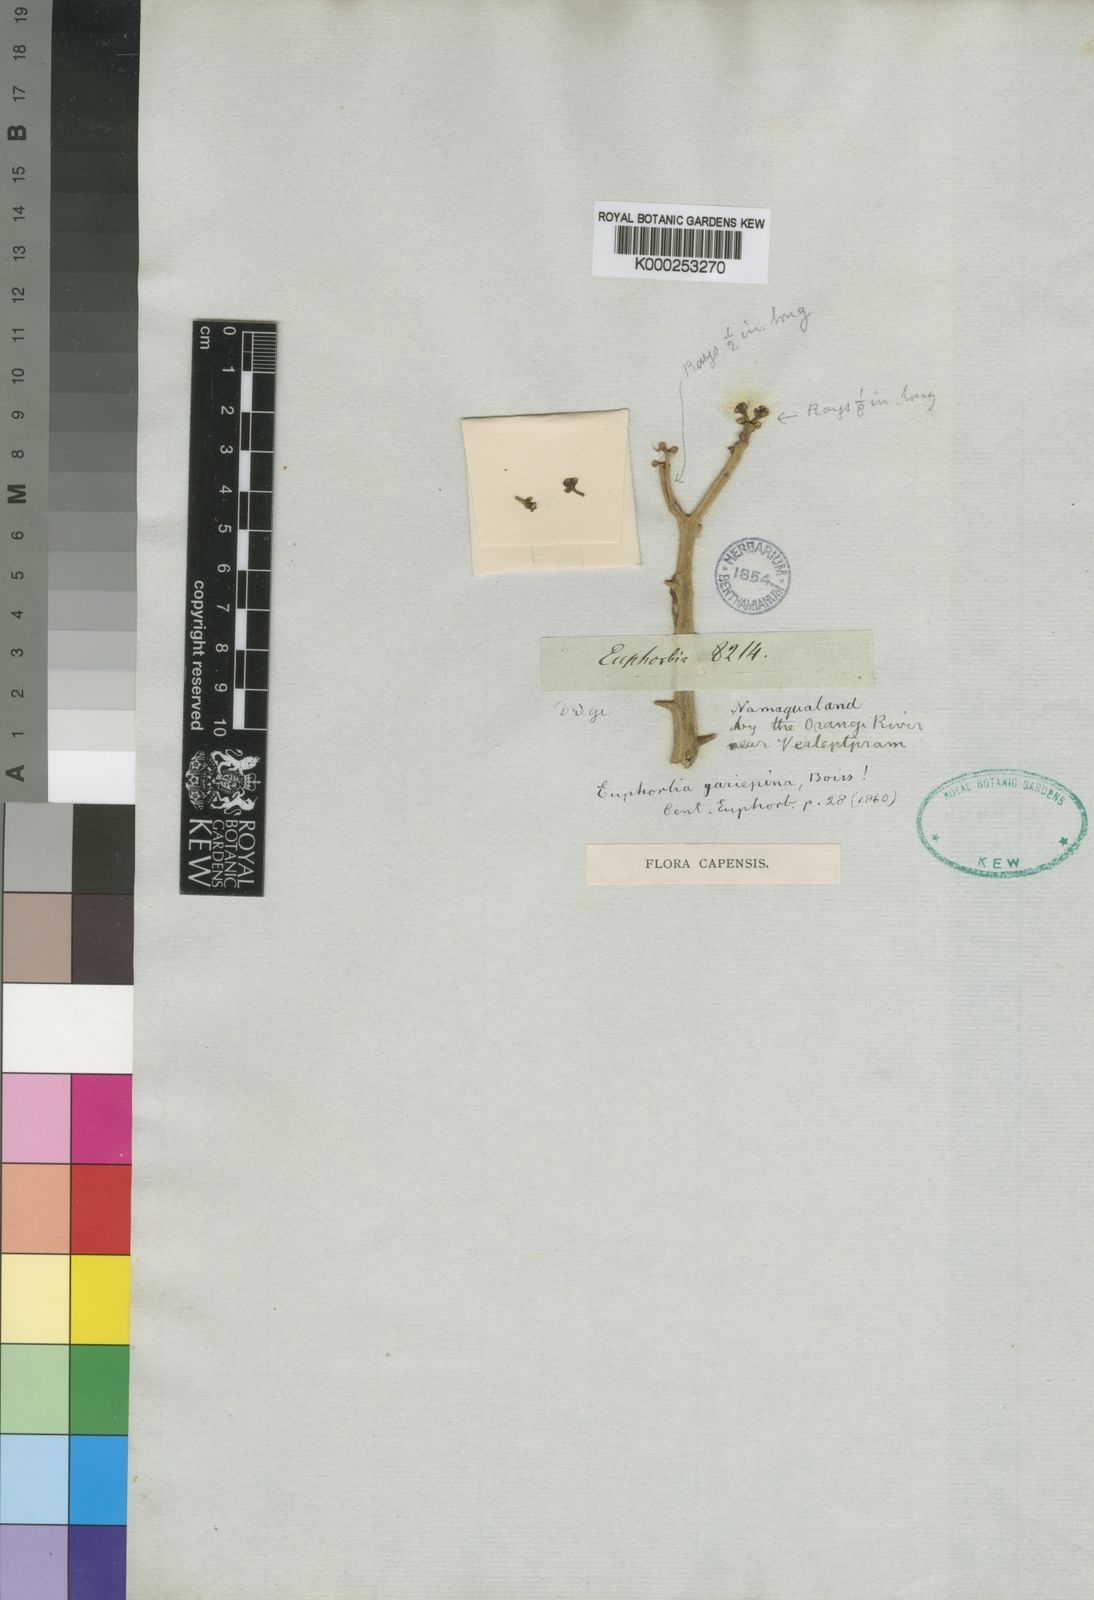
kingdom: Plantae
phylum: Tracheophyta
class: Magnoliopsida
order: Malpighiales
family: Euphorbiaceae
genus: Euphorbia
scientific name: Euphorbia gariepina
